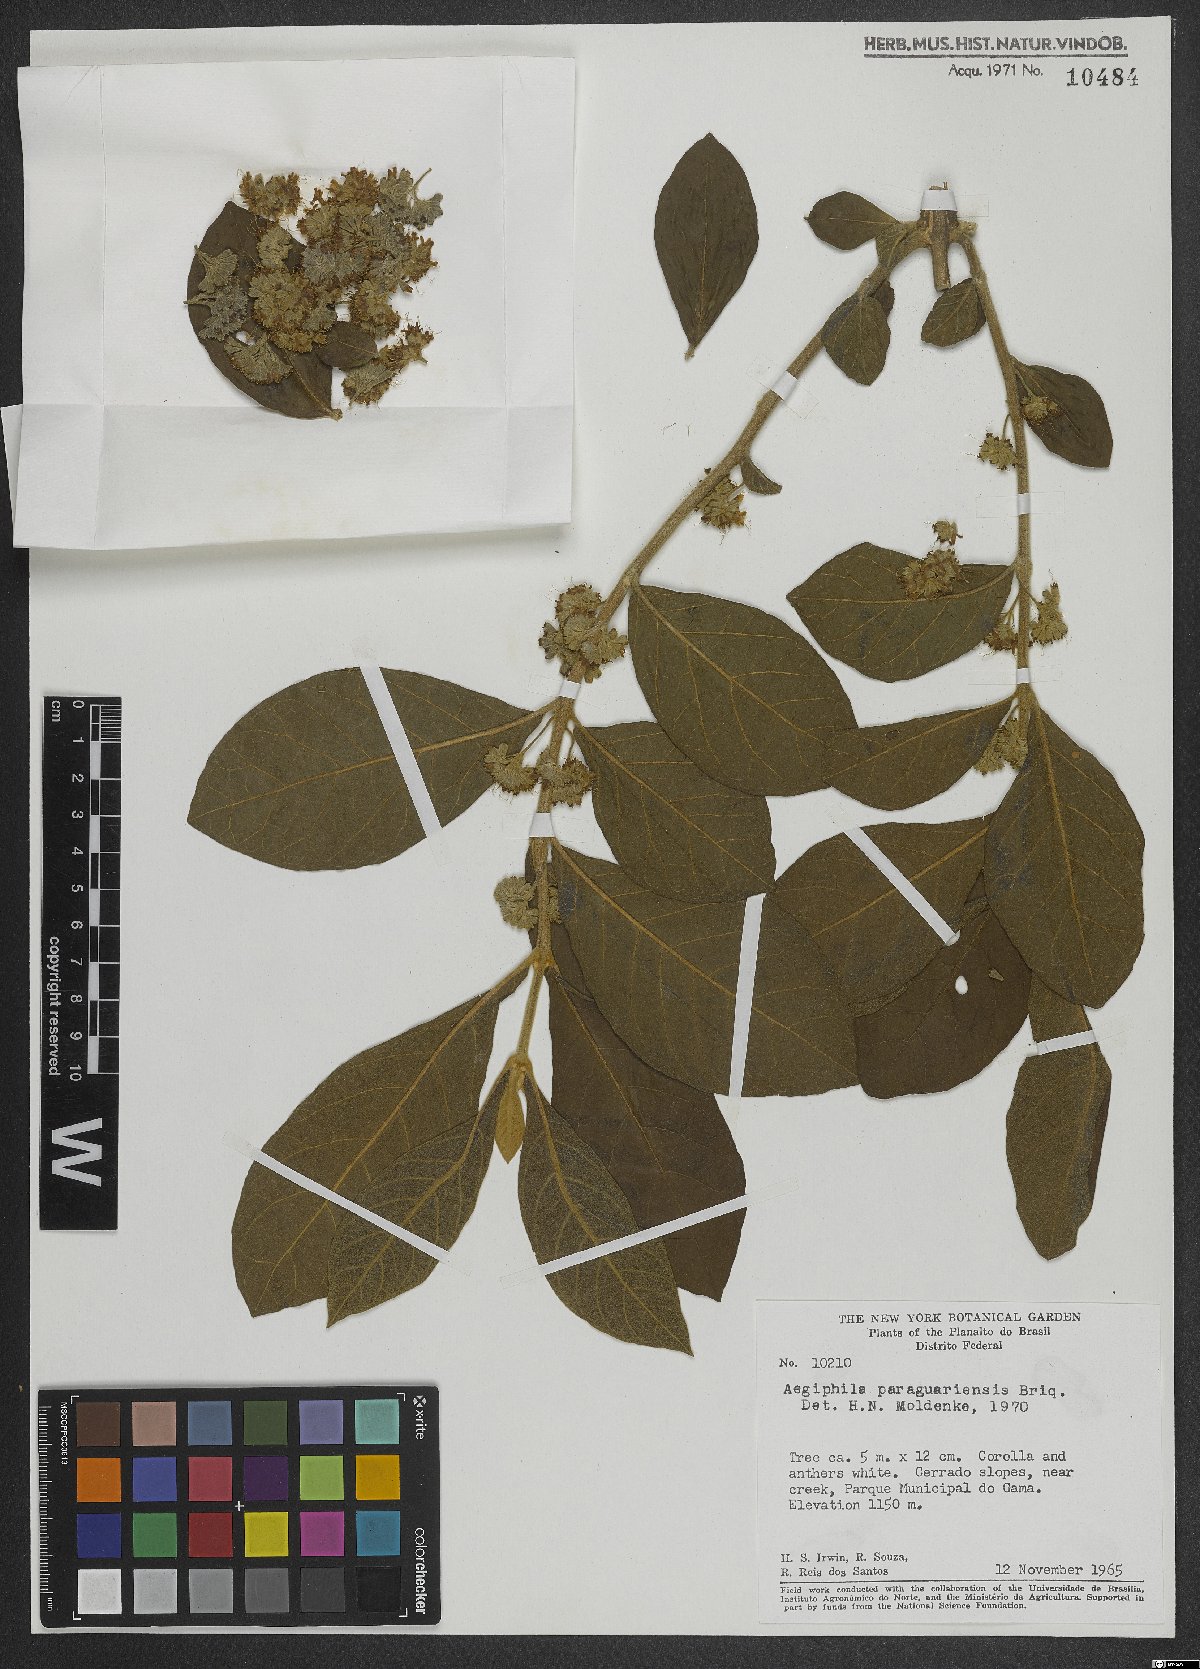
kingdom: Plantae
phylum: Tracheophyta
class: Magnoliopsida
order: Lamiales
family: Lamiaceae
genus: Aegiphila
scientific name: Aegiphila paraguariensis
